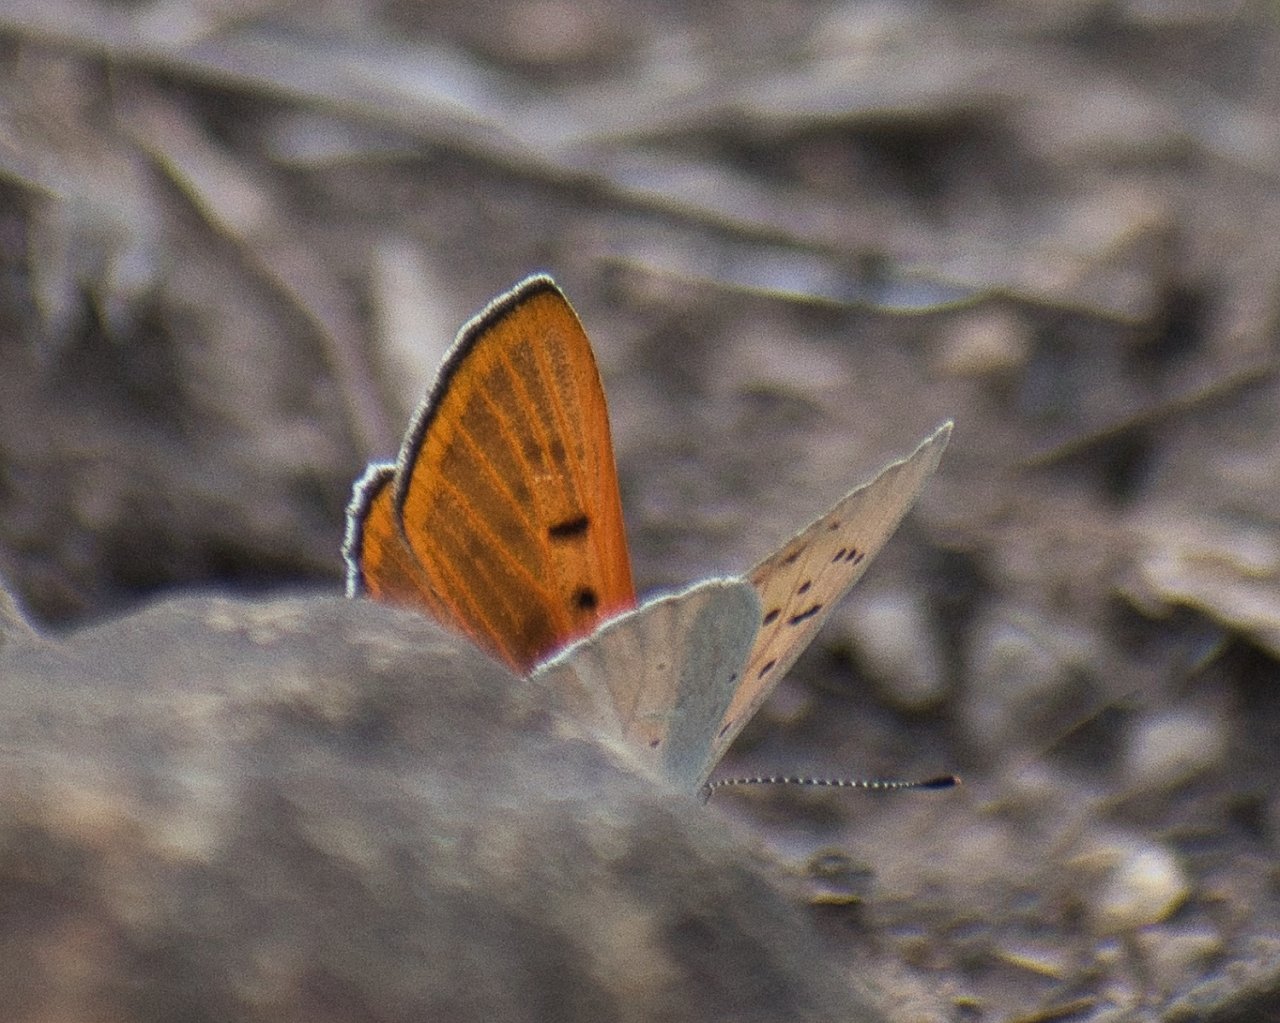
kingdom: Animalia
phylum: Arthropoda
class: Insecta
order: Lepidoptera
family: Sesiidae
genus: Sesia
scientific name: Sesia Lycaena rubidus
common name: Ruddy Copper
